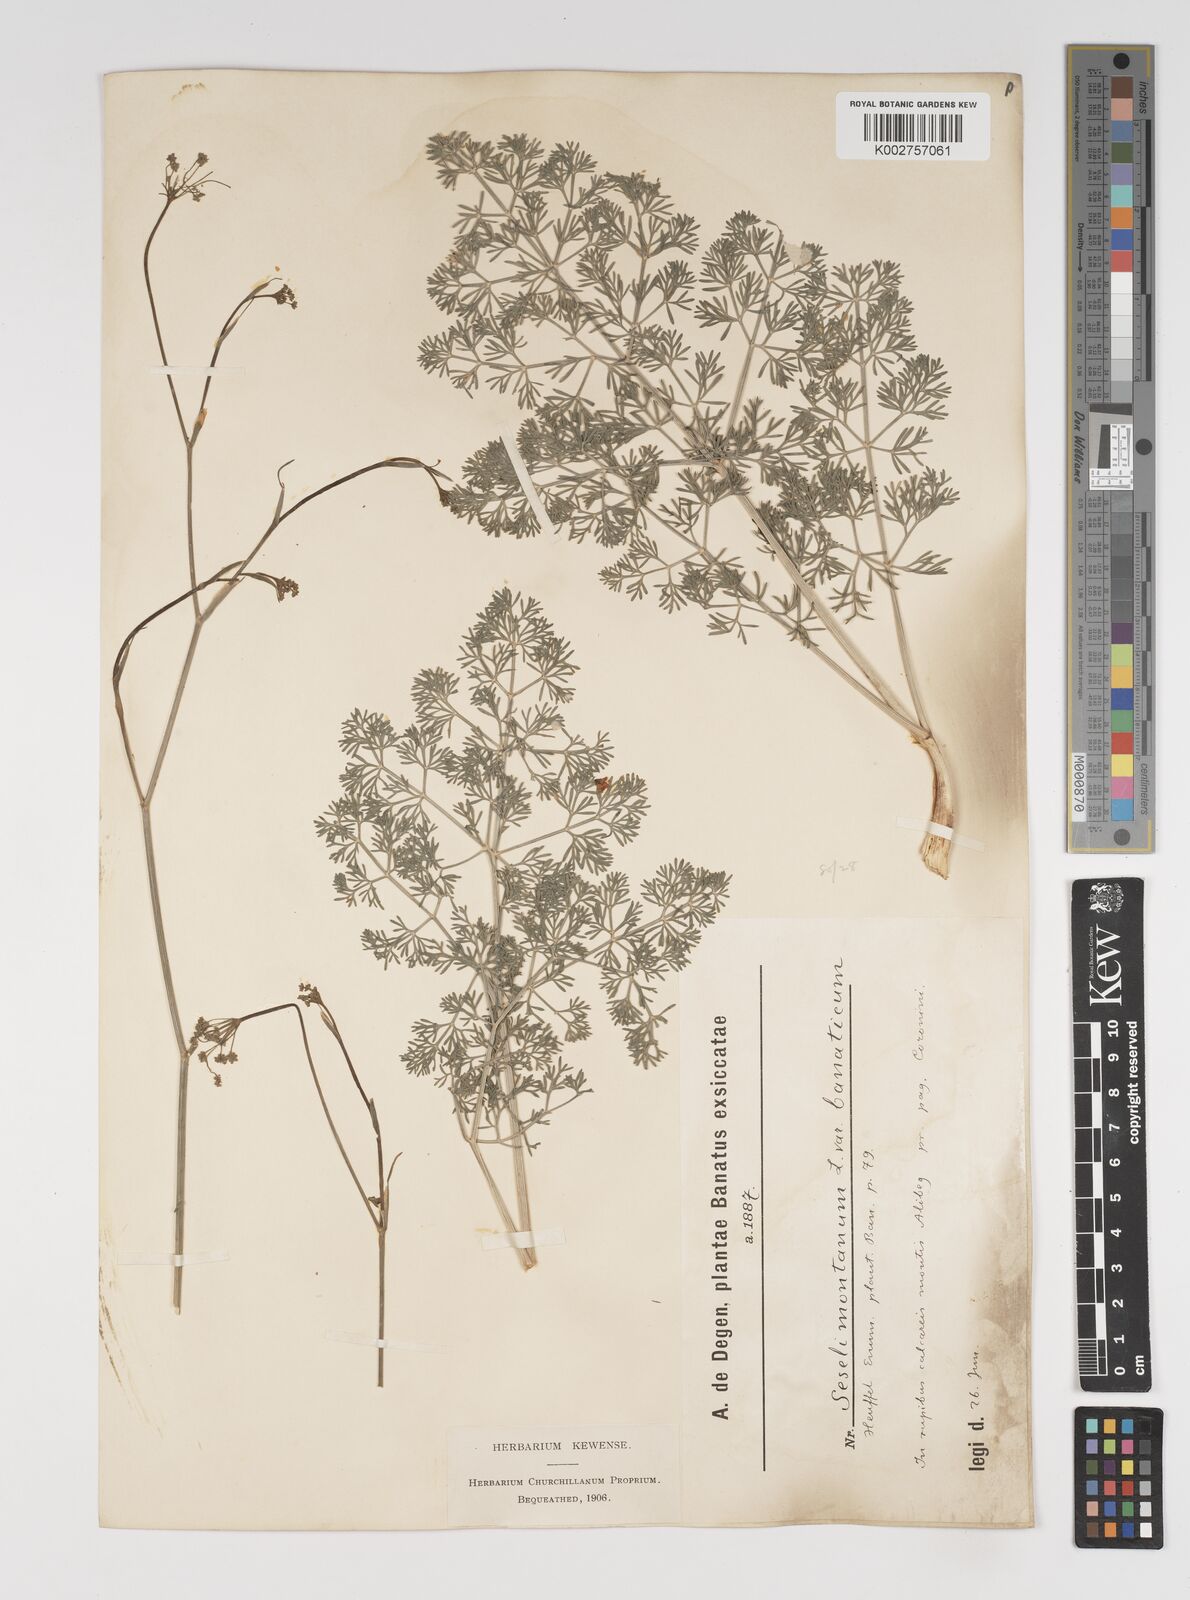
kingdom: Plantae
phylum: Tracheophyta
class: Magnoliopsida
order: Apiales
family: Apiaceae
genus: Seseli
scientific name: Seseli montanum
